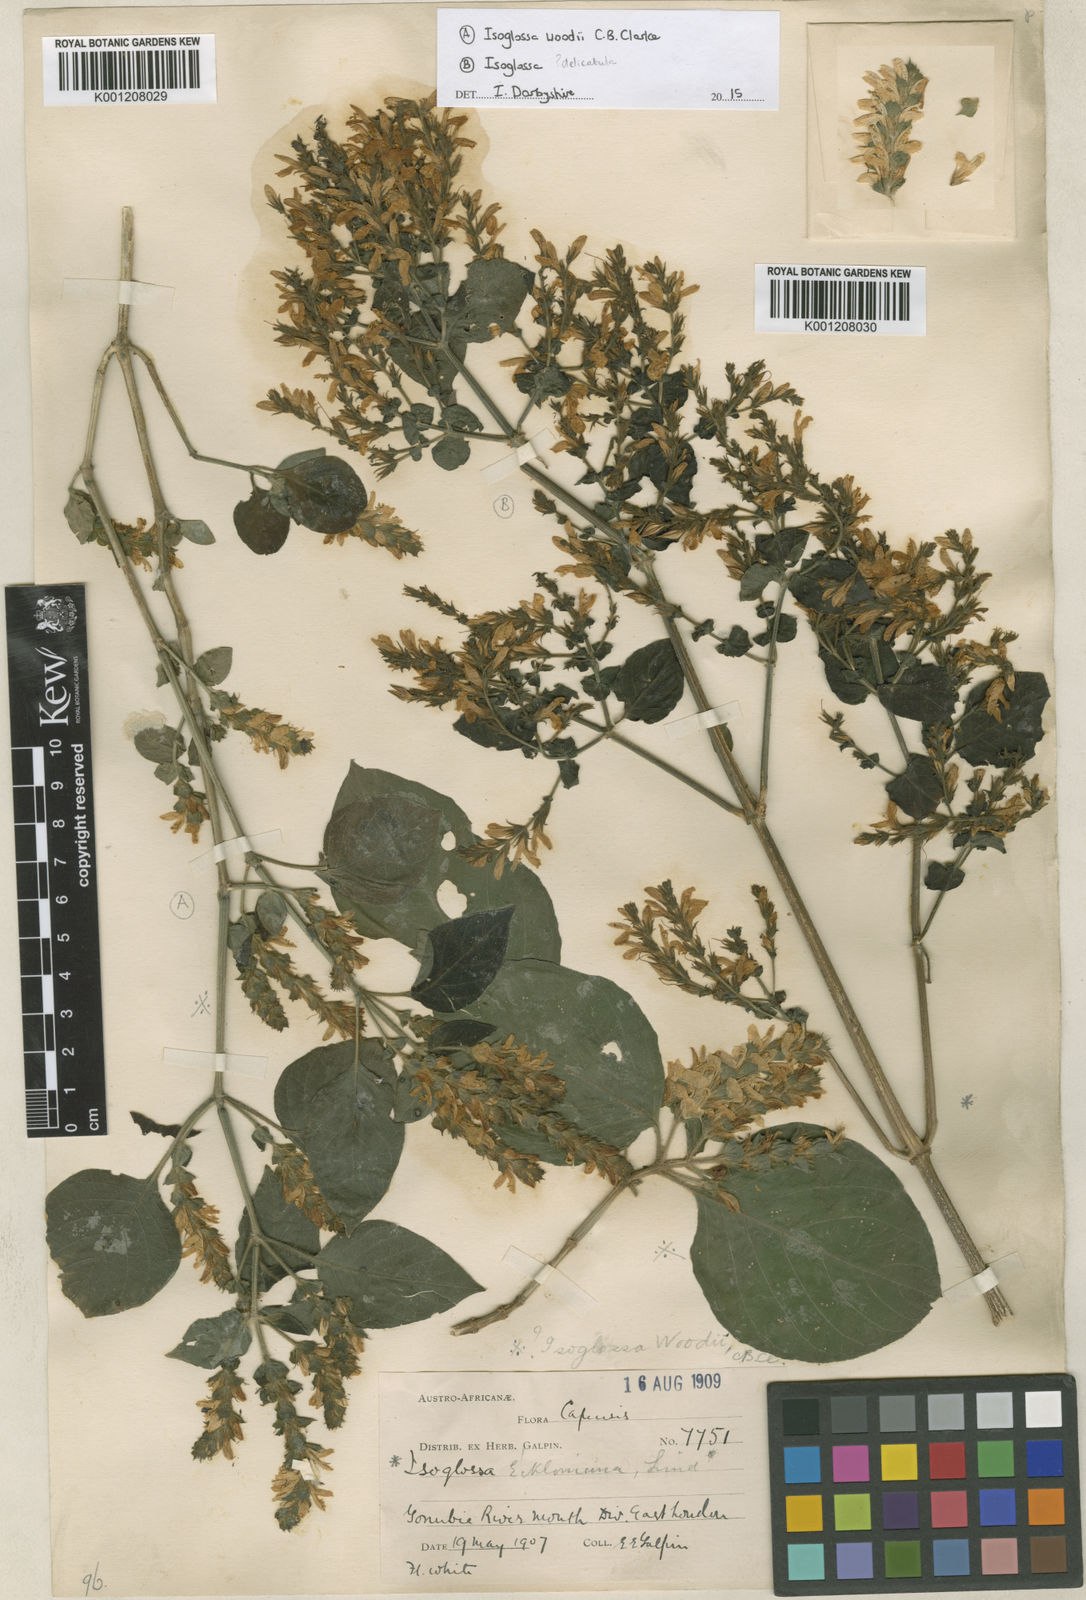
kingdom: Plantae
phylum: Tracheophyta
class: Magnoliopsida
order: Lamiales
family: Acanthaceae
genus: Isoglossa
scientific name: Isoglossa woodii
